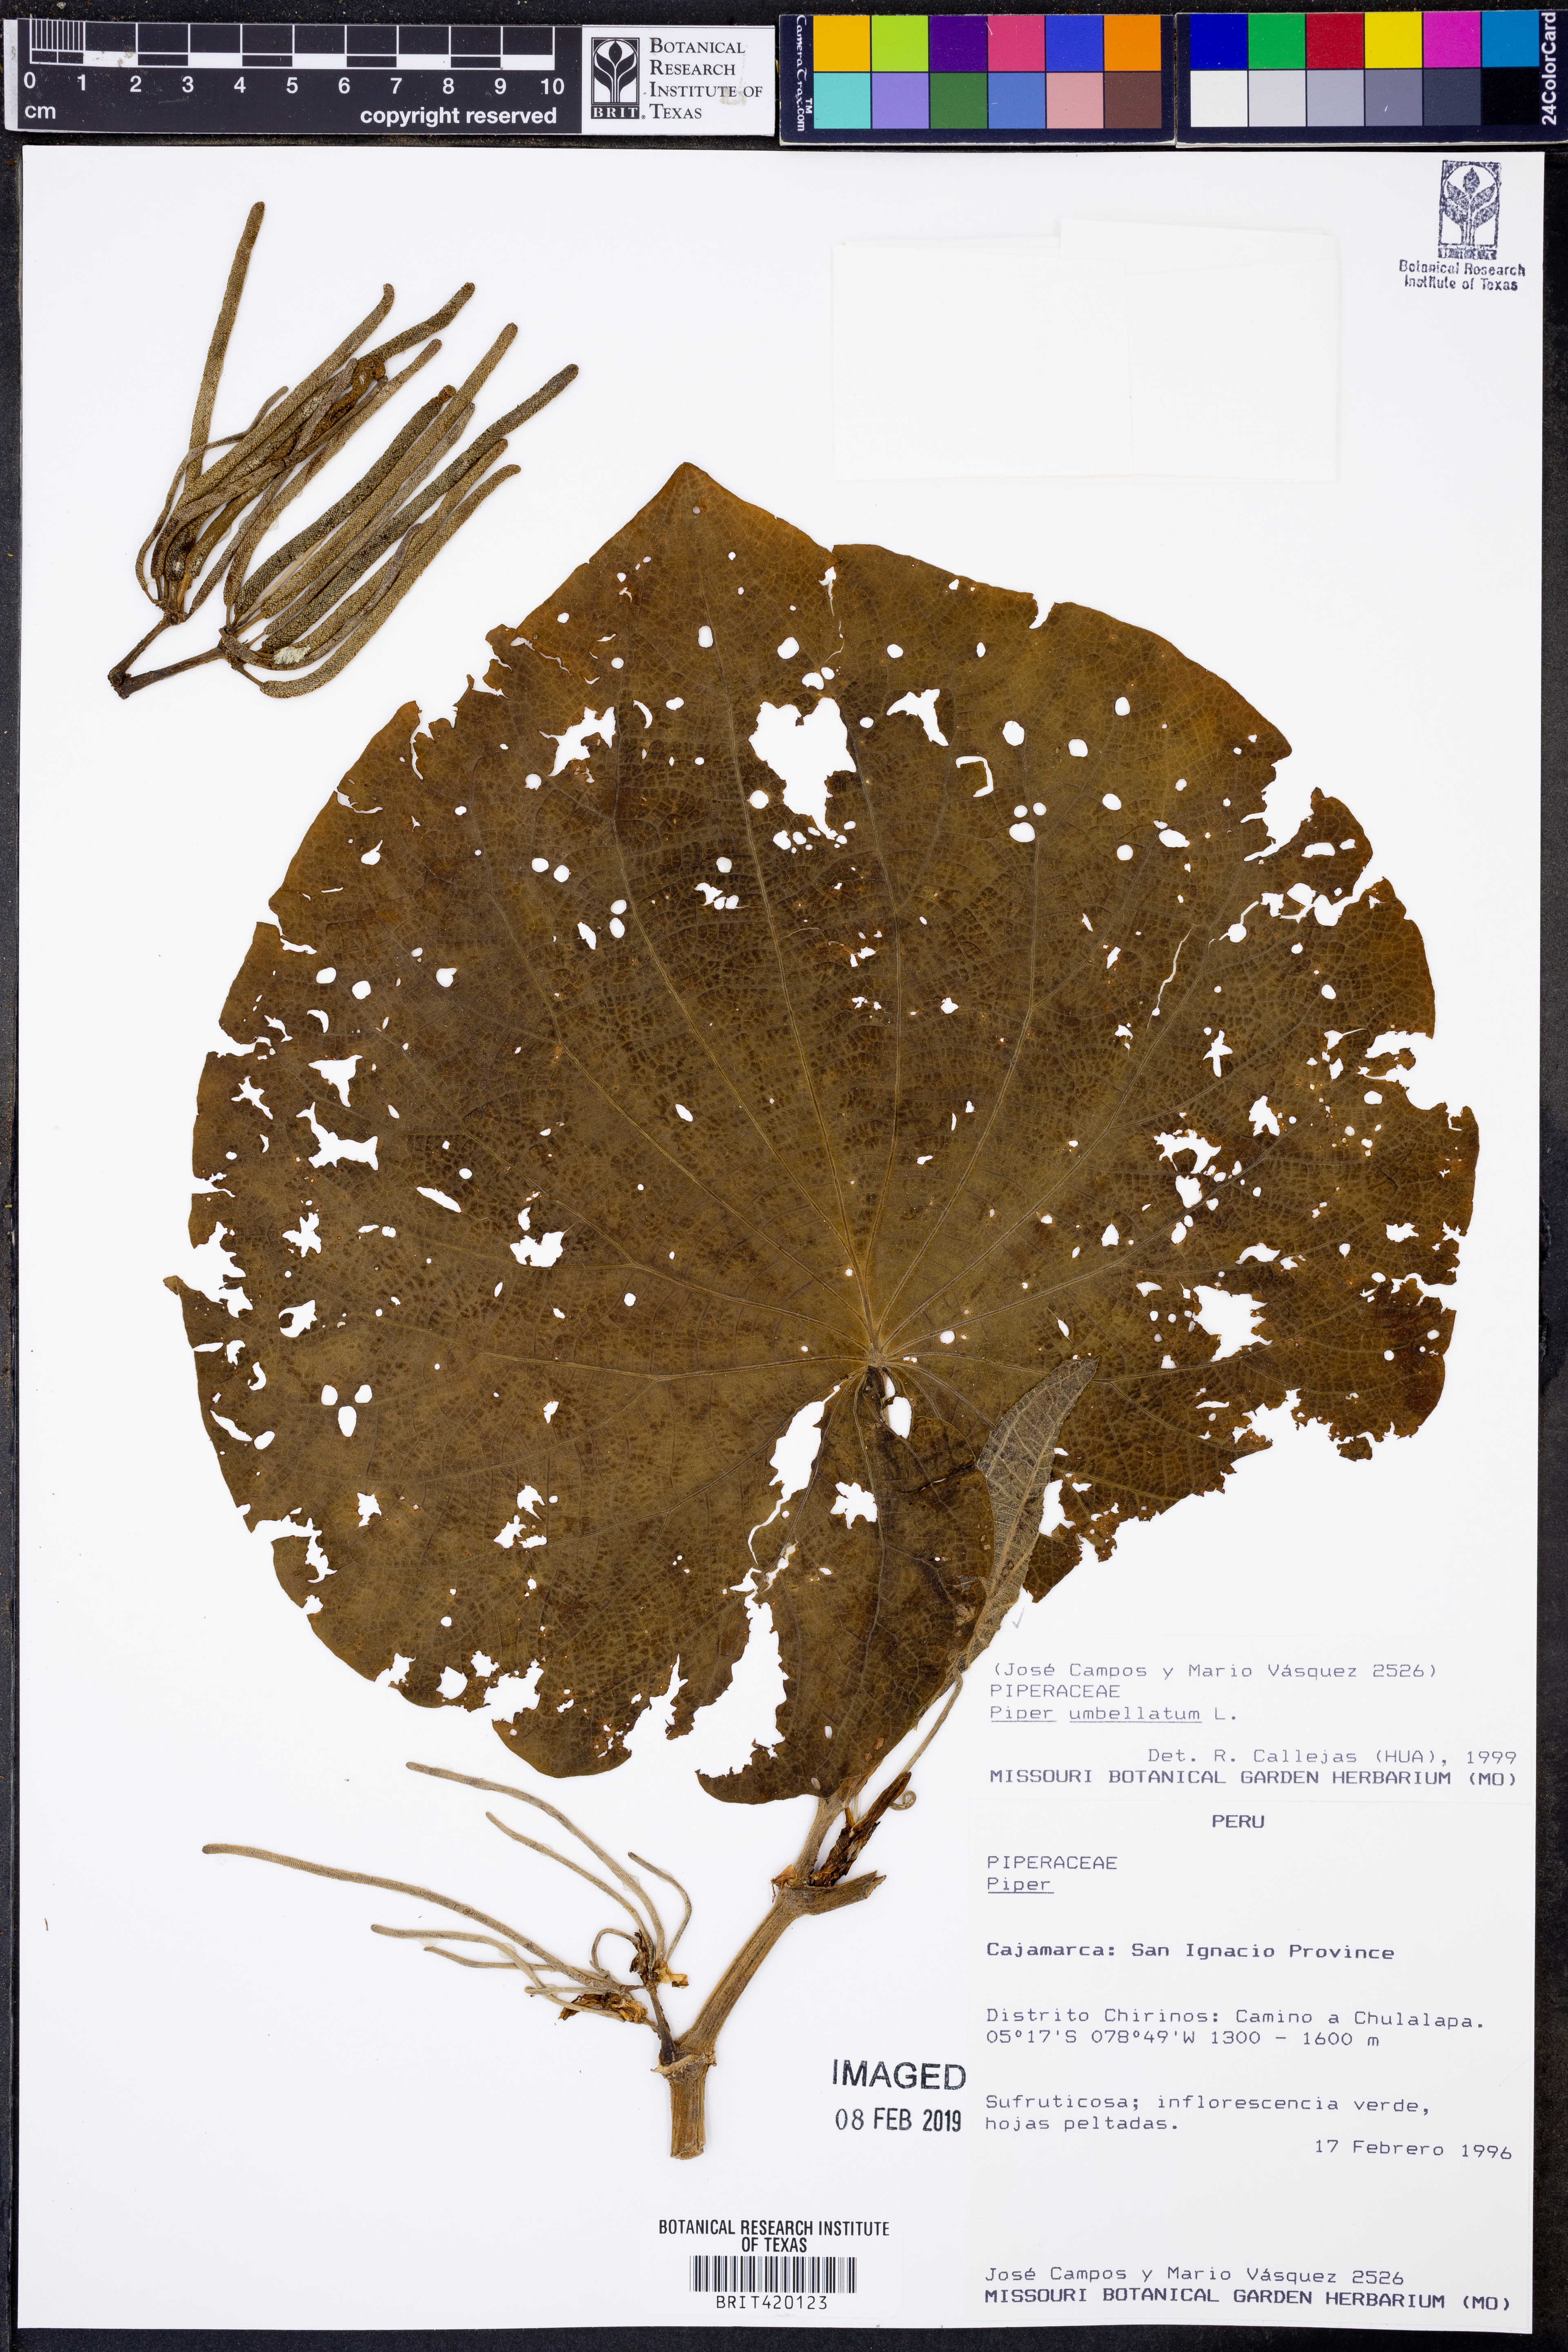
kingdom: Plantae
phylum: Tracheophyta
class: Magnoliopsida
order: Piperales
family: Piperaceae
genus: Piper
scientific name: Piper umbellatum
